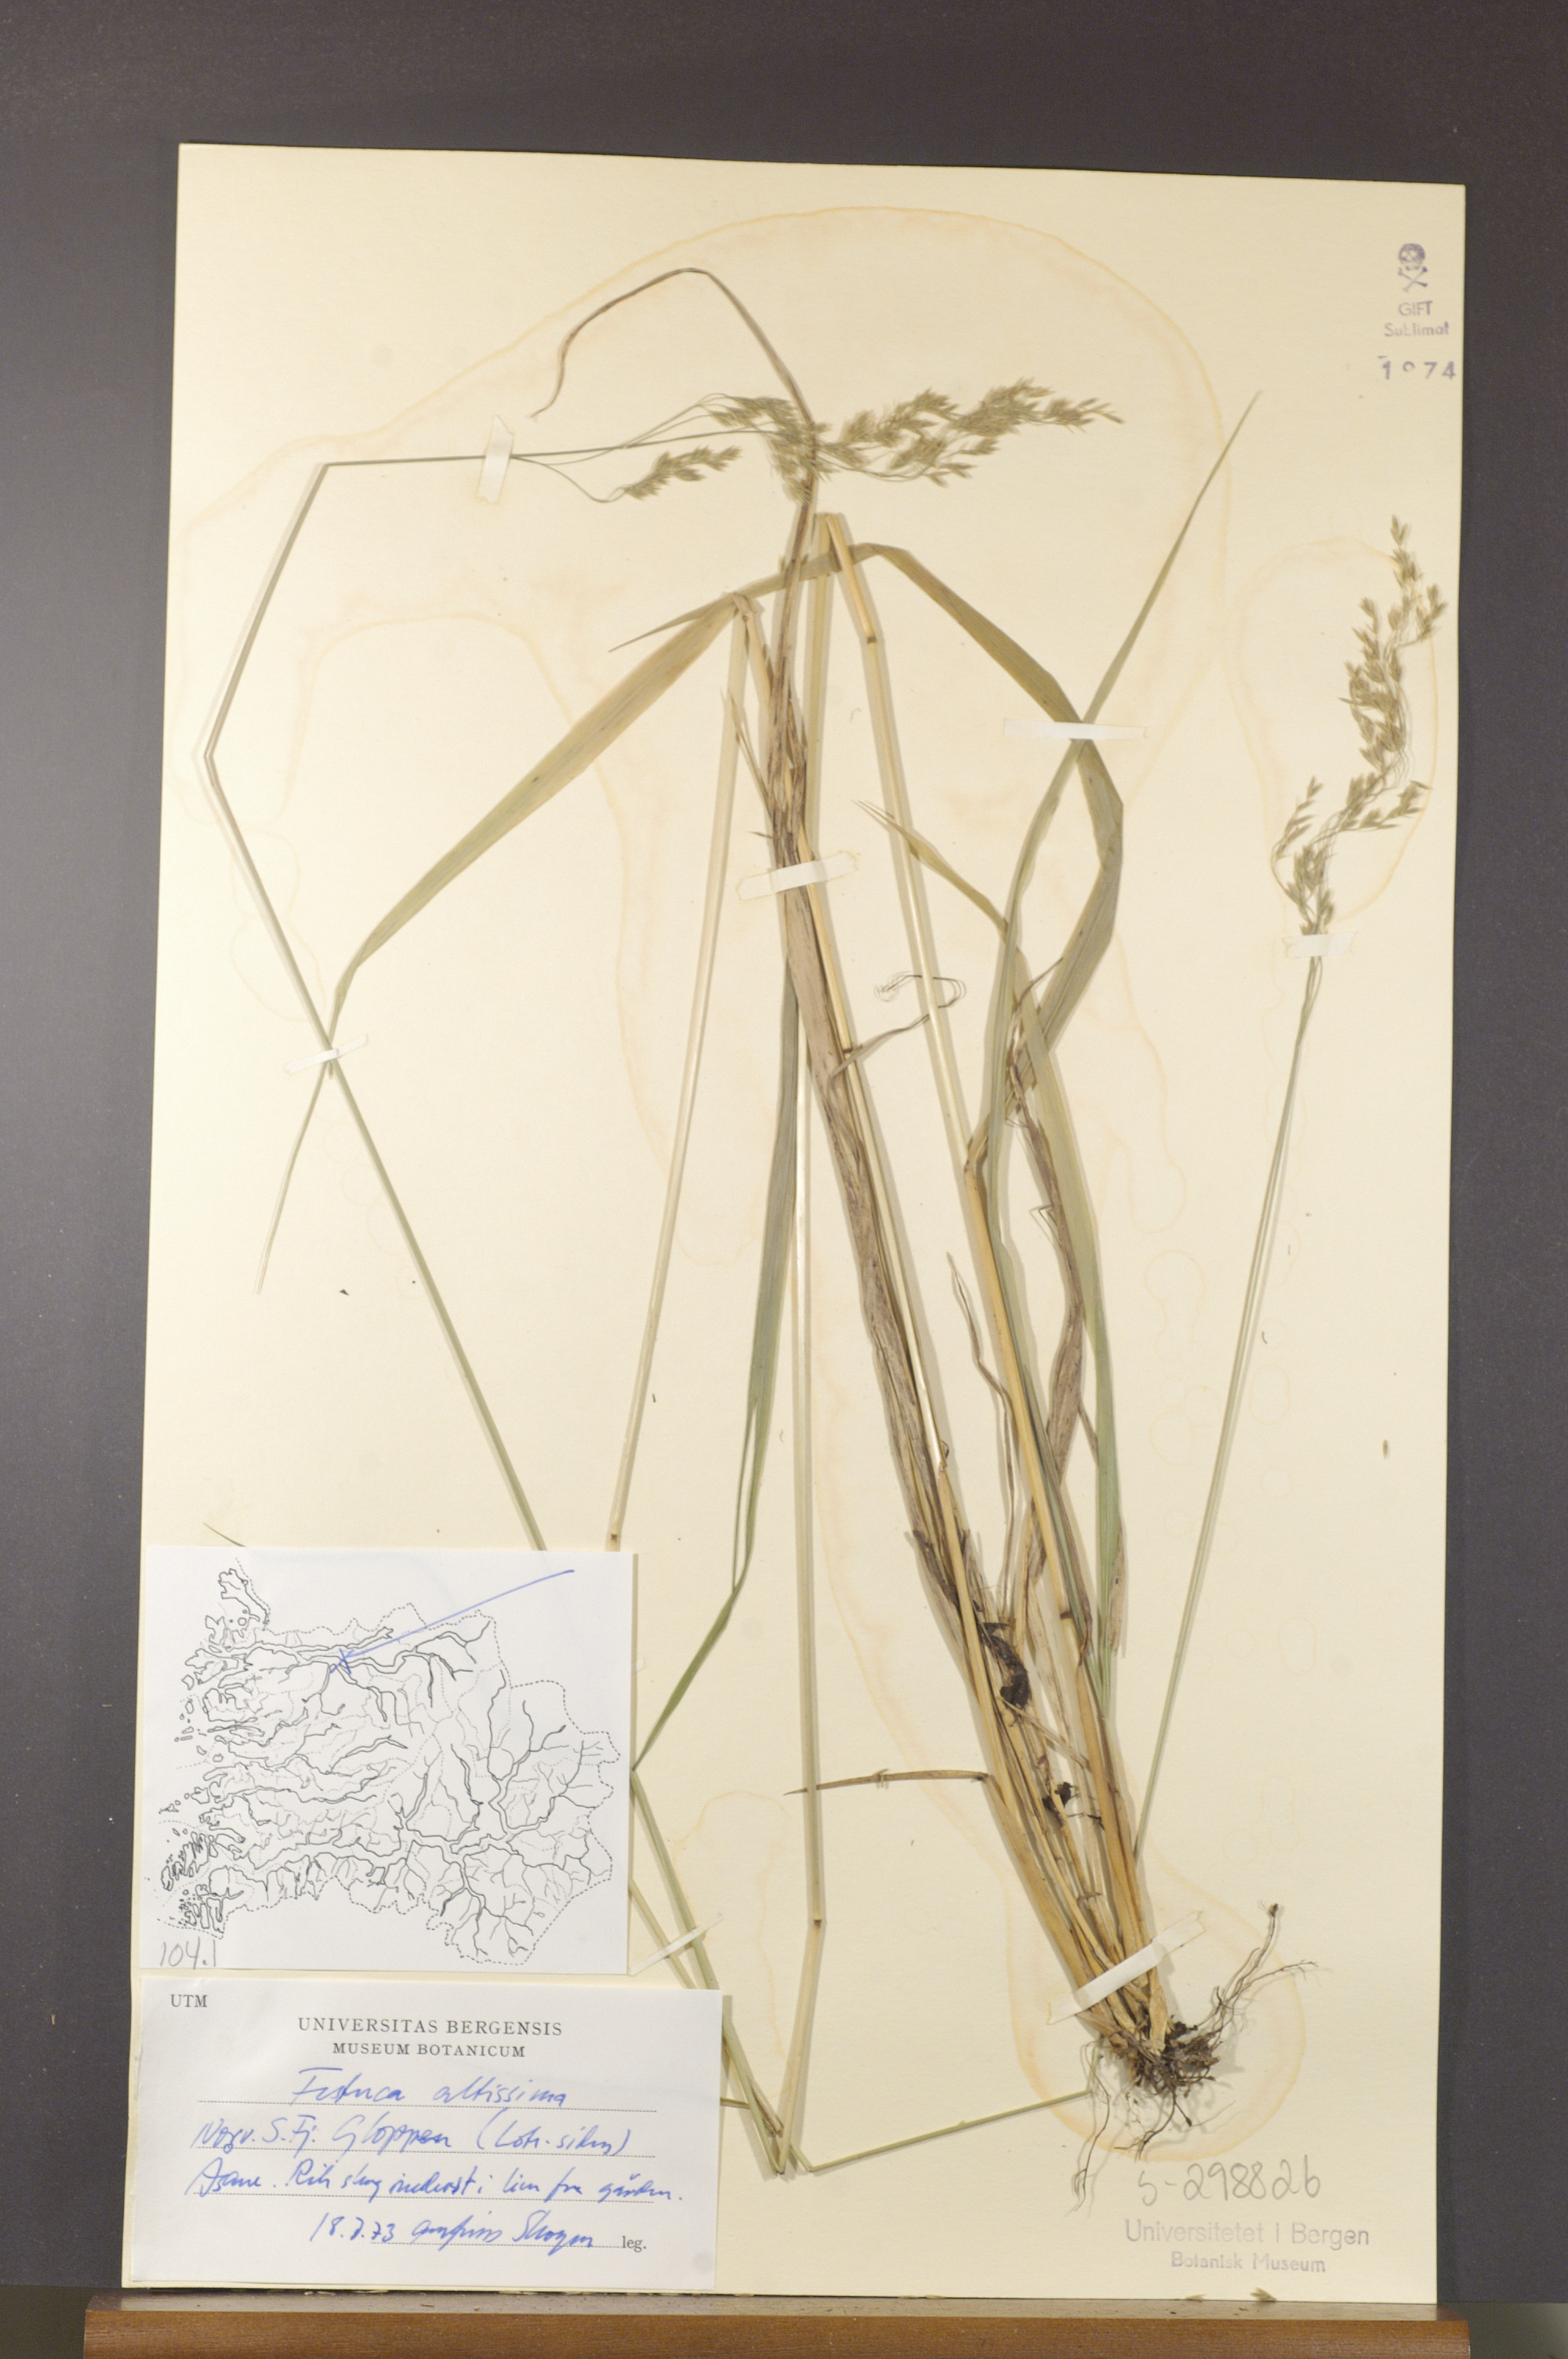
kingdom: Plantae
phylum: Tracheophyta
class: Liliopsida
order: Poales
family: Poaceae
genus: Festuca
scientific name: Festuca altissima
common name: Wood fescue
